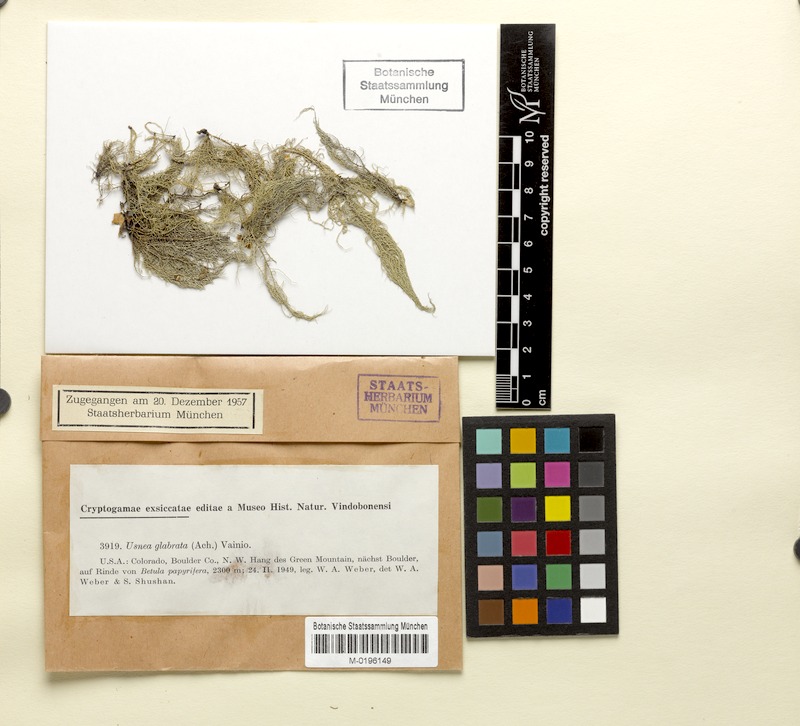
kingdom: Fungi
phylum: Ascomycota
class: Lecanoromycetes
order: Lecanorales
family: Parmeliaceae
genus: Usnea
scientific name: Usnea glabrata
